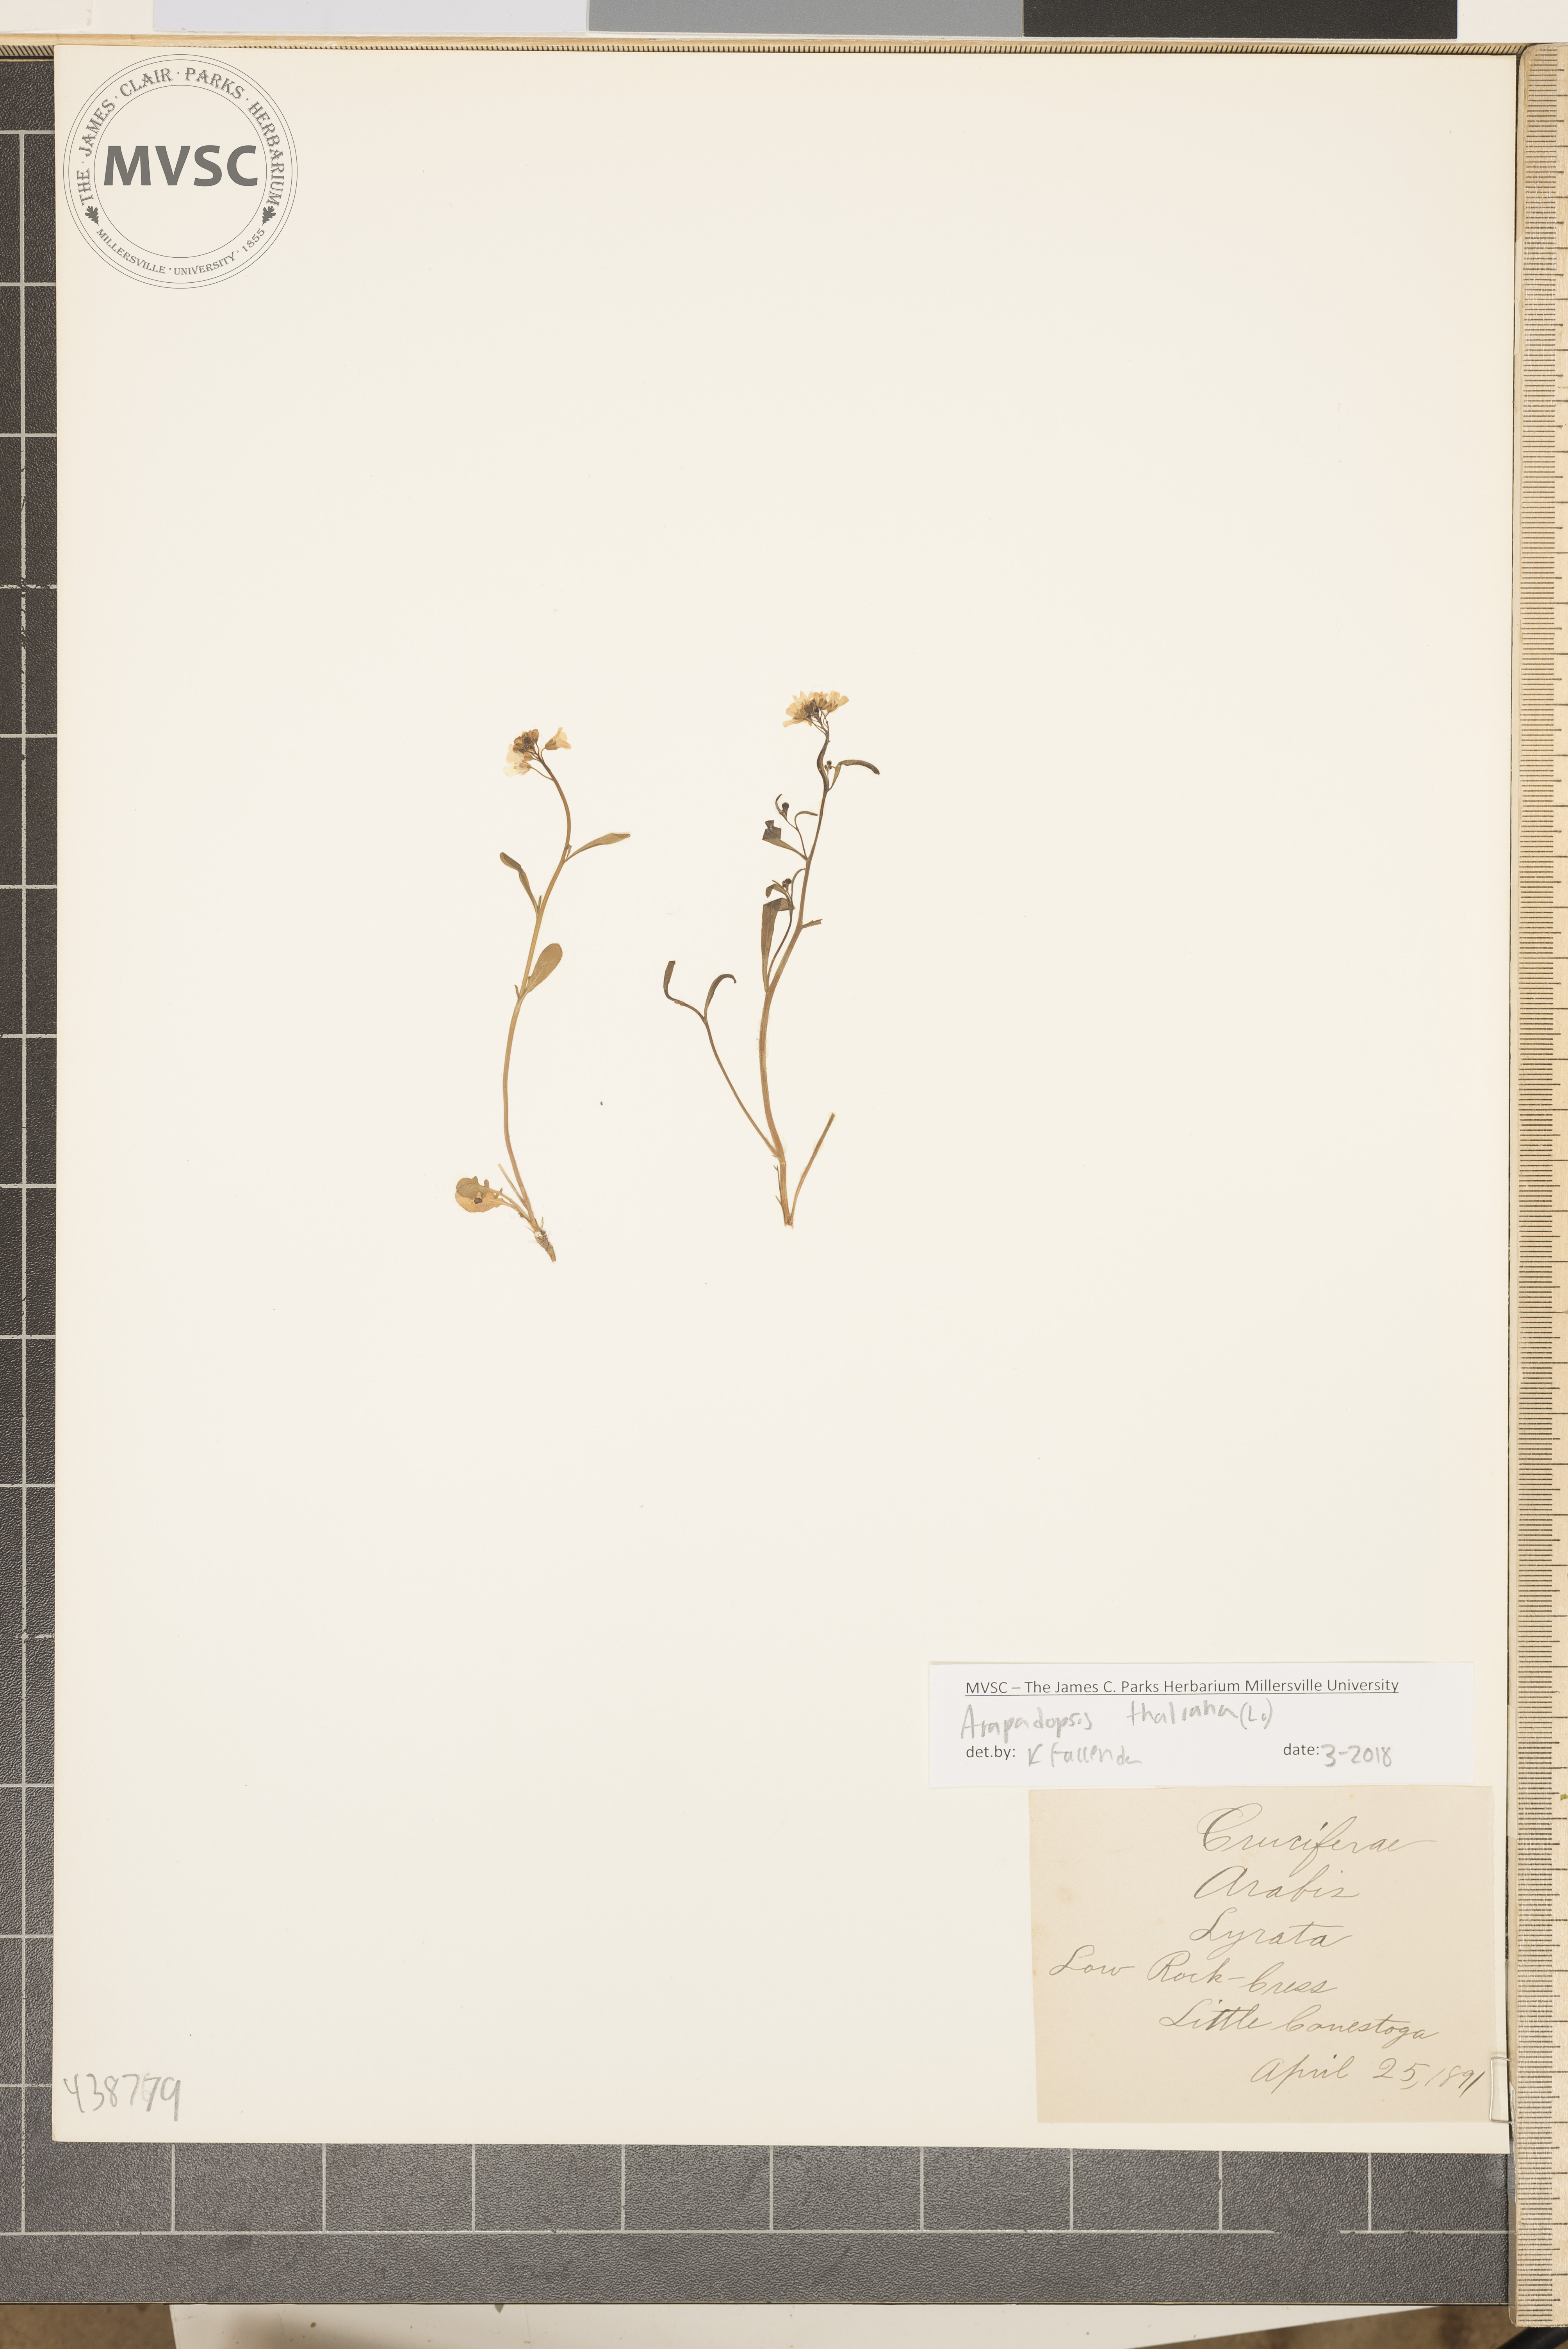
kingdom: Plantae
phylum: Tracheophyta
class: Magnoliopsida
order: Brassicales
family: Brassicaceae
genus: Arabidopsis
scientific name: Arabidopsis thaliana
